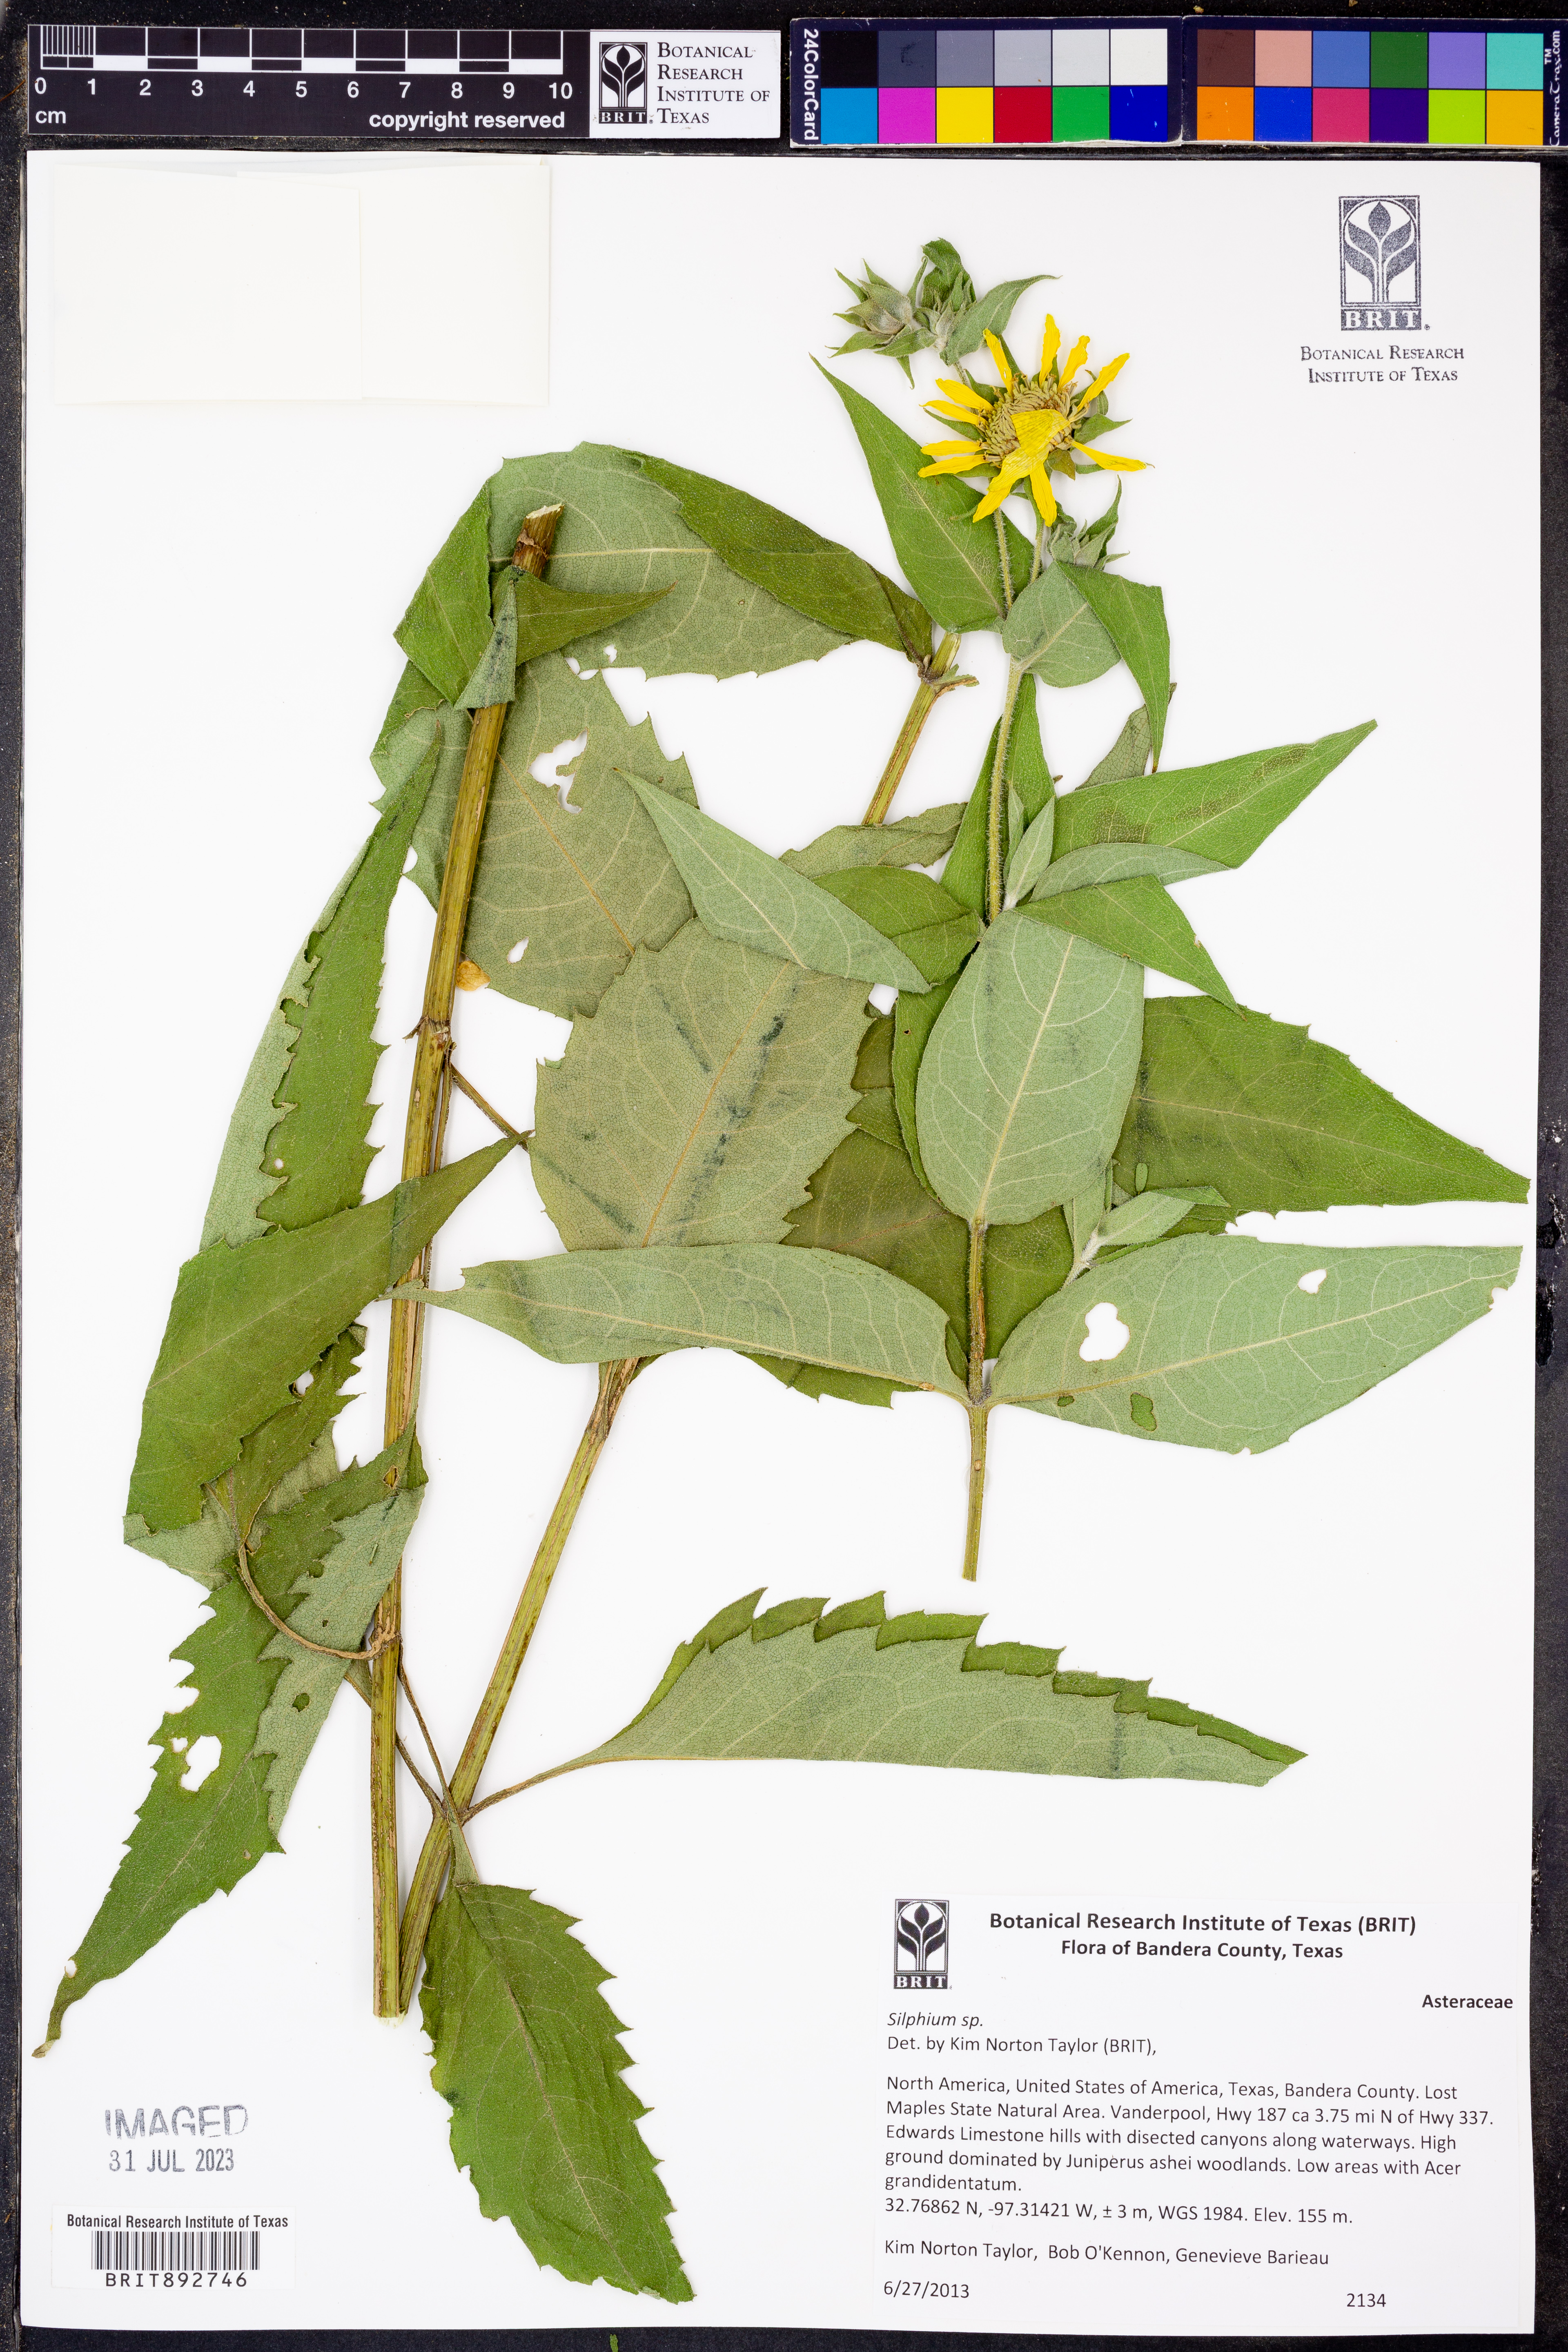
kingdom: Plantae
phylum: Tracheophyta
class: Magnoliopsida
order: Asterales
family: Asteraceae
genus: Silphium
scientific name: Silphium
